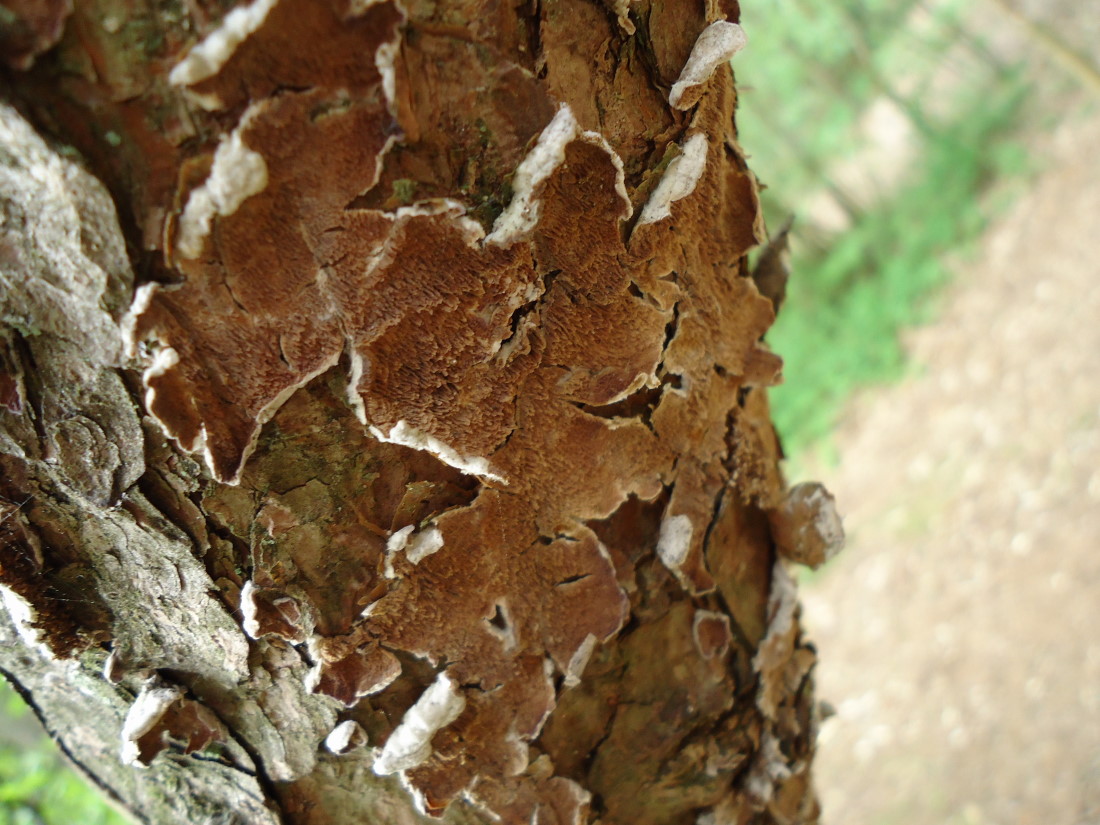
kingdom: Fungi
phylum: Basidiomycota
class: Agaricomycetes
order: Hymenochaetales
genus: Trichaptum
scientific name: Trichaptum fuscoviolaceum
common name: tandet violporesvamp
